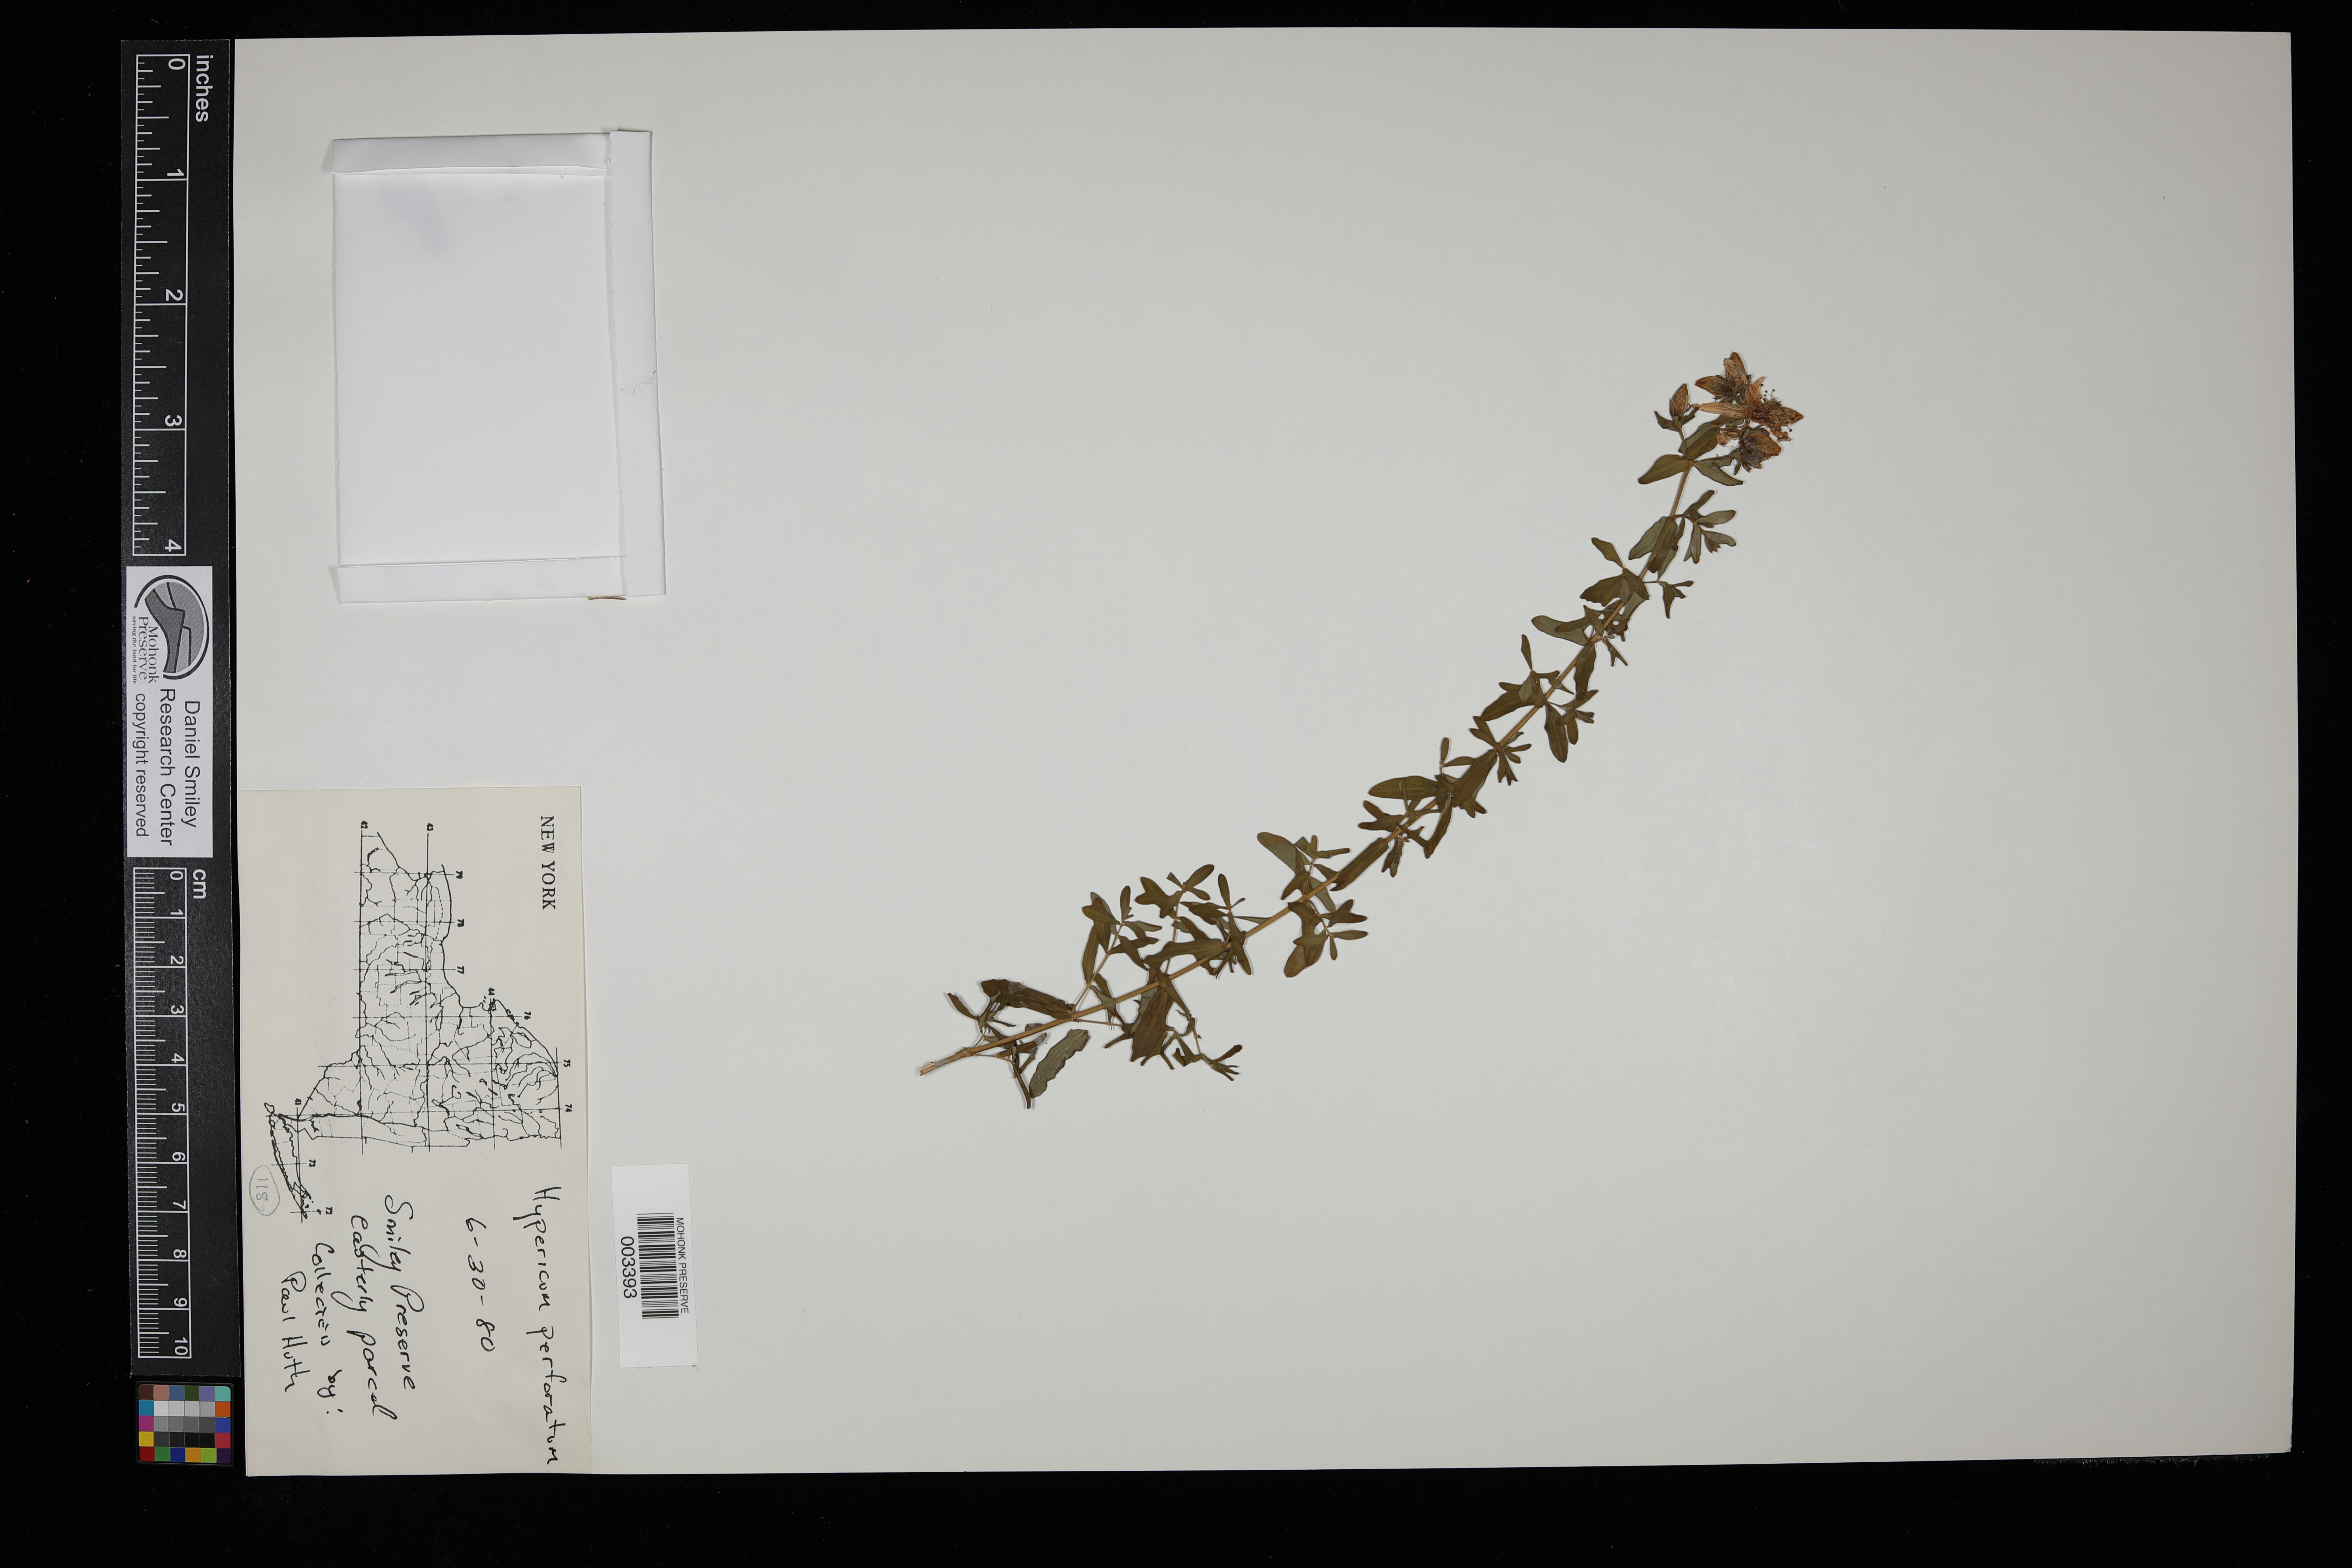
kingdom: Plantae
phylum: Tracheophyta
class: Magnoliopsida
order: Malpighiales
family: Hypericaceae
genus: Hypericum
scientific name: Hypericum perforatum
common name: Common st. johnswort
